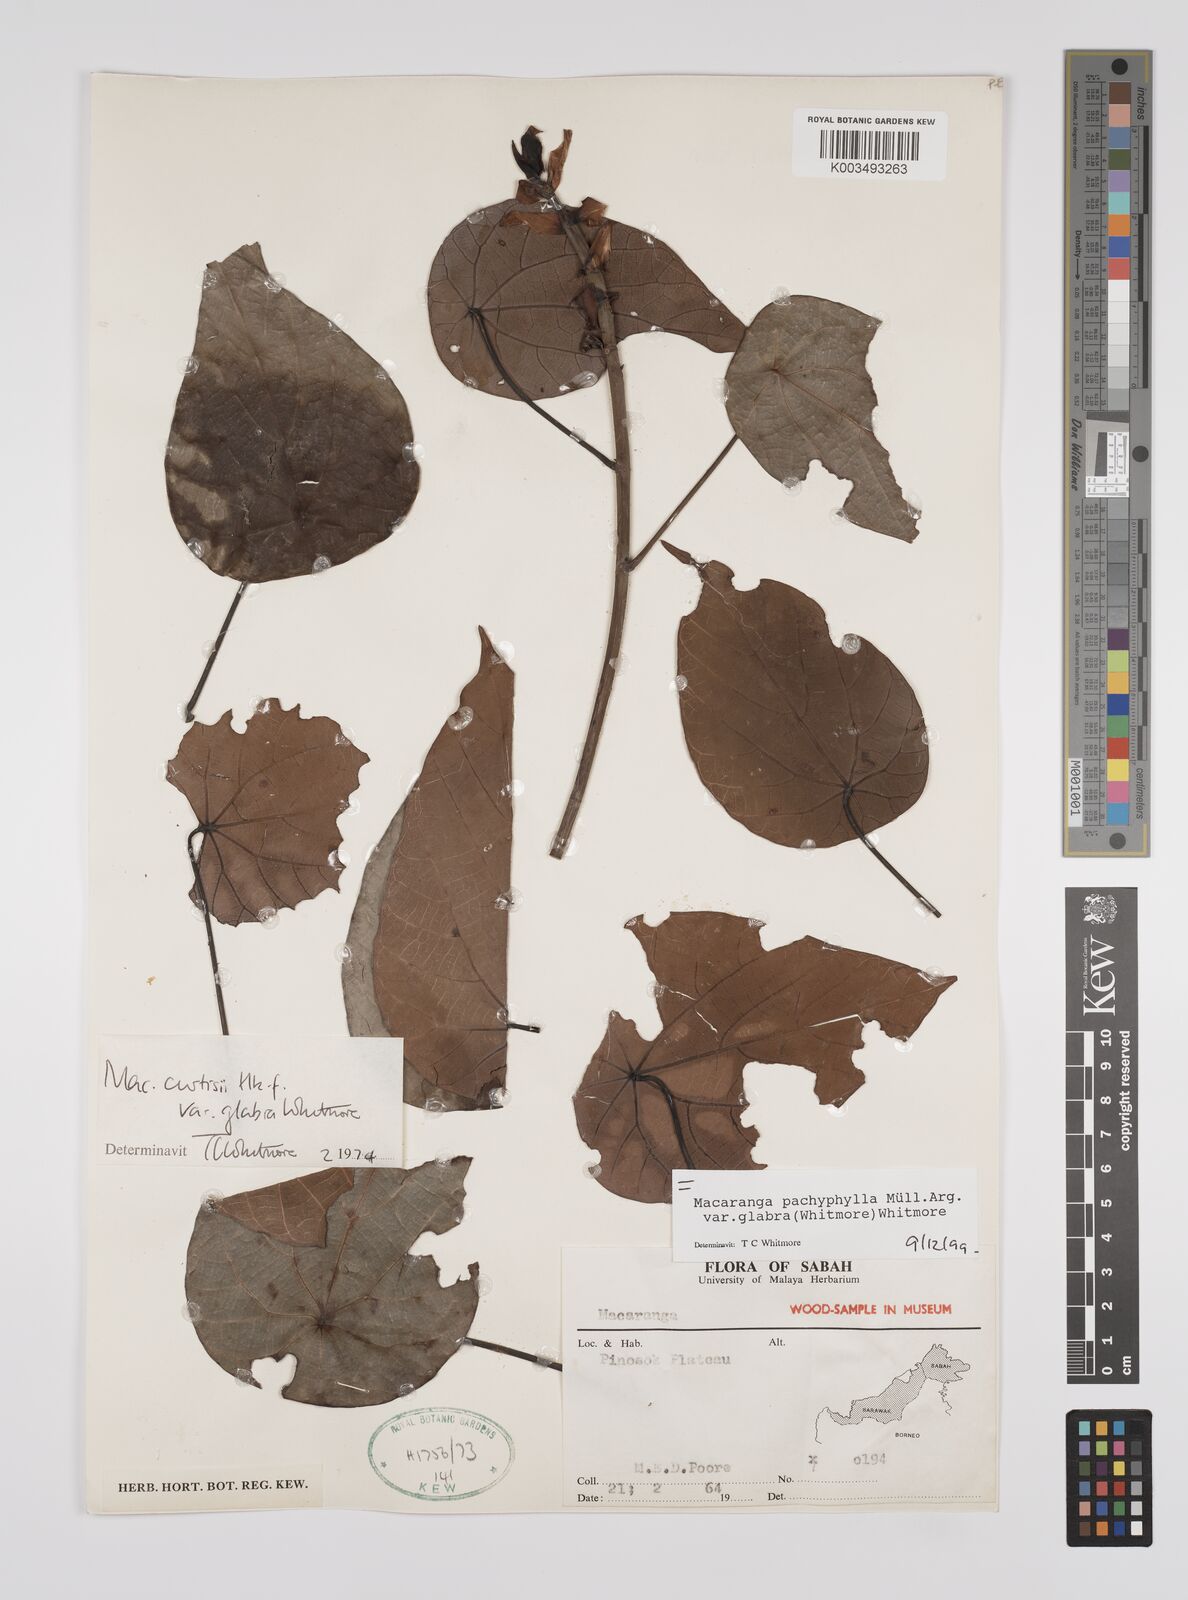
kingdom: Plantae
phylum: Tracheophyta
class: Magnoliopsida
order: Malpighiales
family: Euphorbiaceae
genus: Macaranga
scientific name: Macaranga pachyphylla
